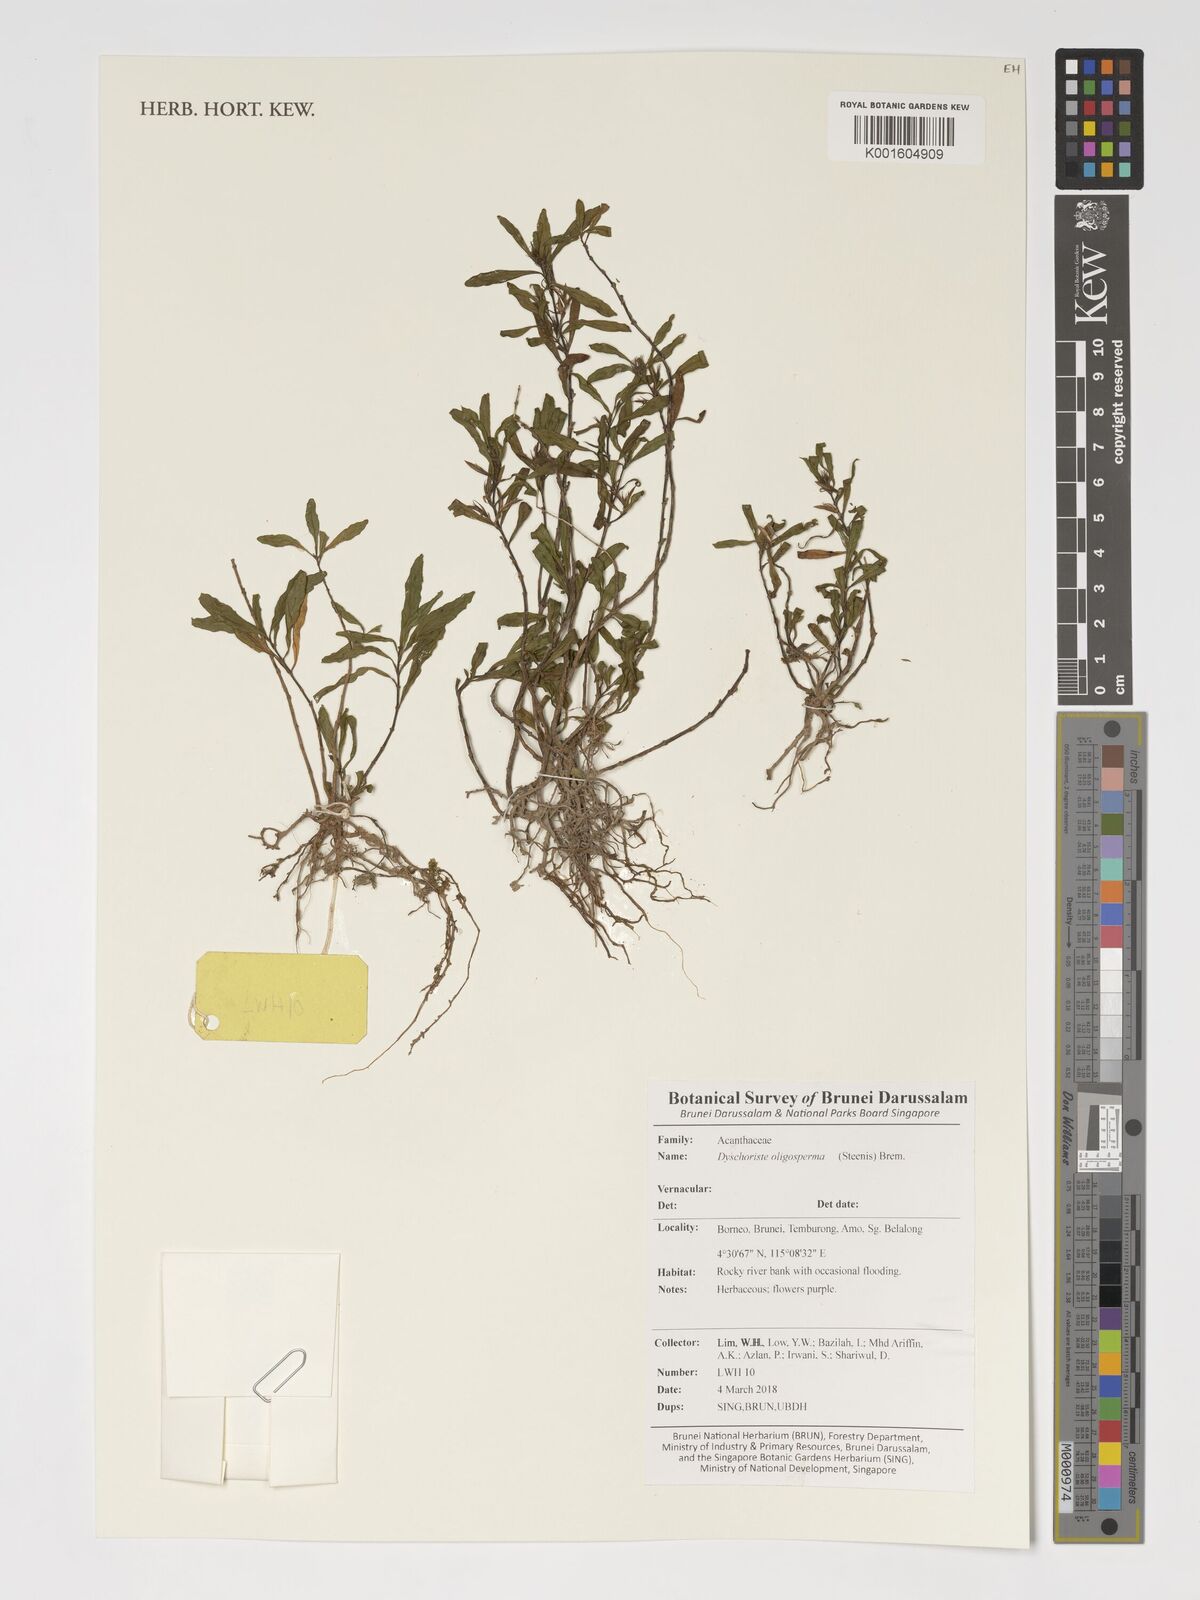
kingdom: Plantae
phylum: Tracheophyta
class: Magnoliopsida
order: Lamiales
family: Acanthaceae
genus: Dyschoriste
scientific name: Dyschoriste oligosperma
